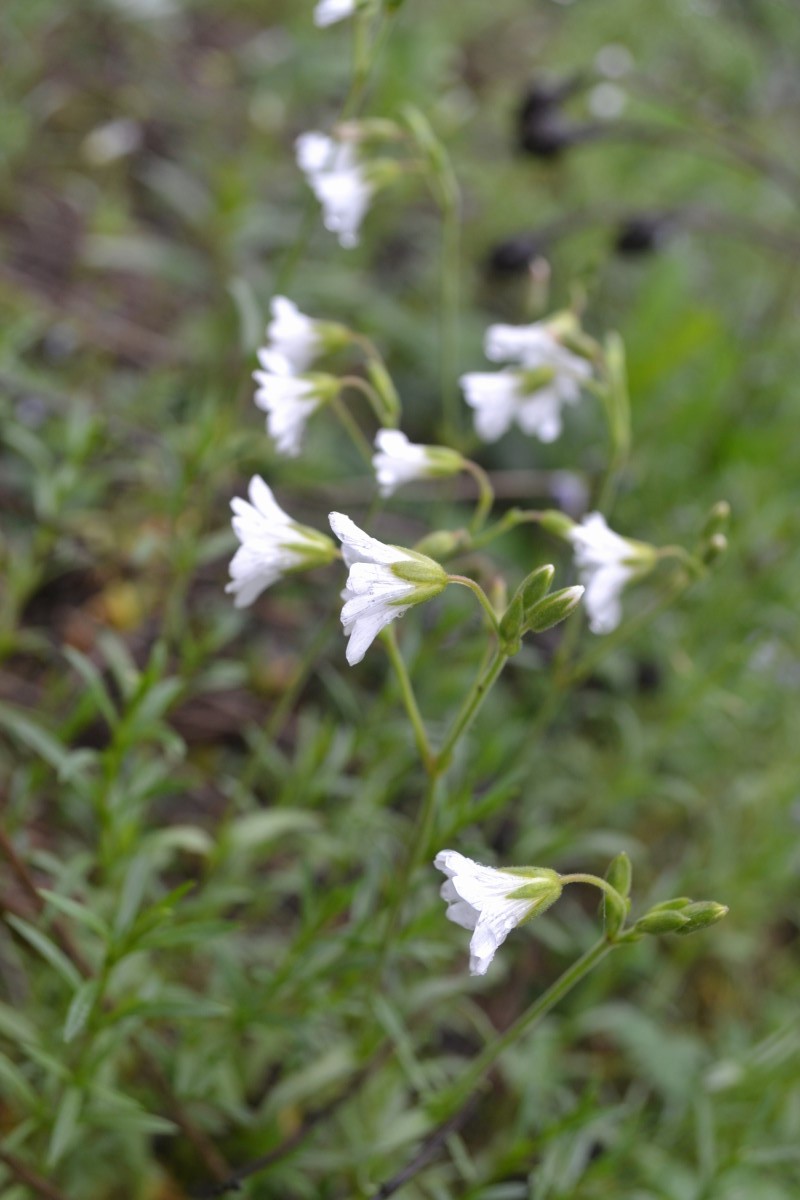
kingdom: Plantae
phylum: Tracheophyta
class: Magnoliopsida
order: Caryophyllales
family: Caryophyllaceae
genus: Cerastium
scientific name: Cerastium arvense
